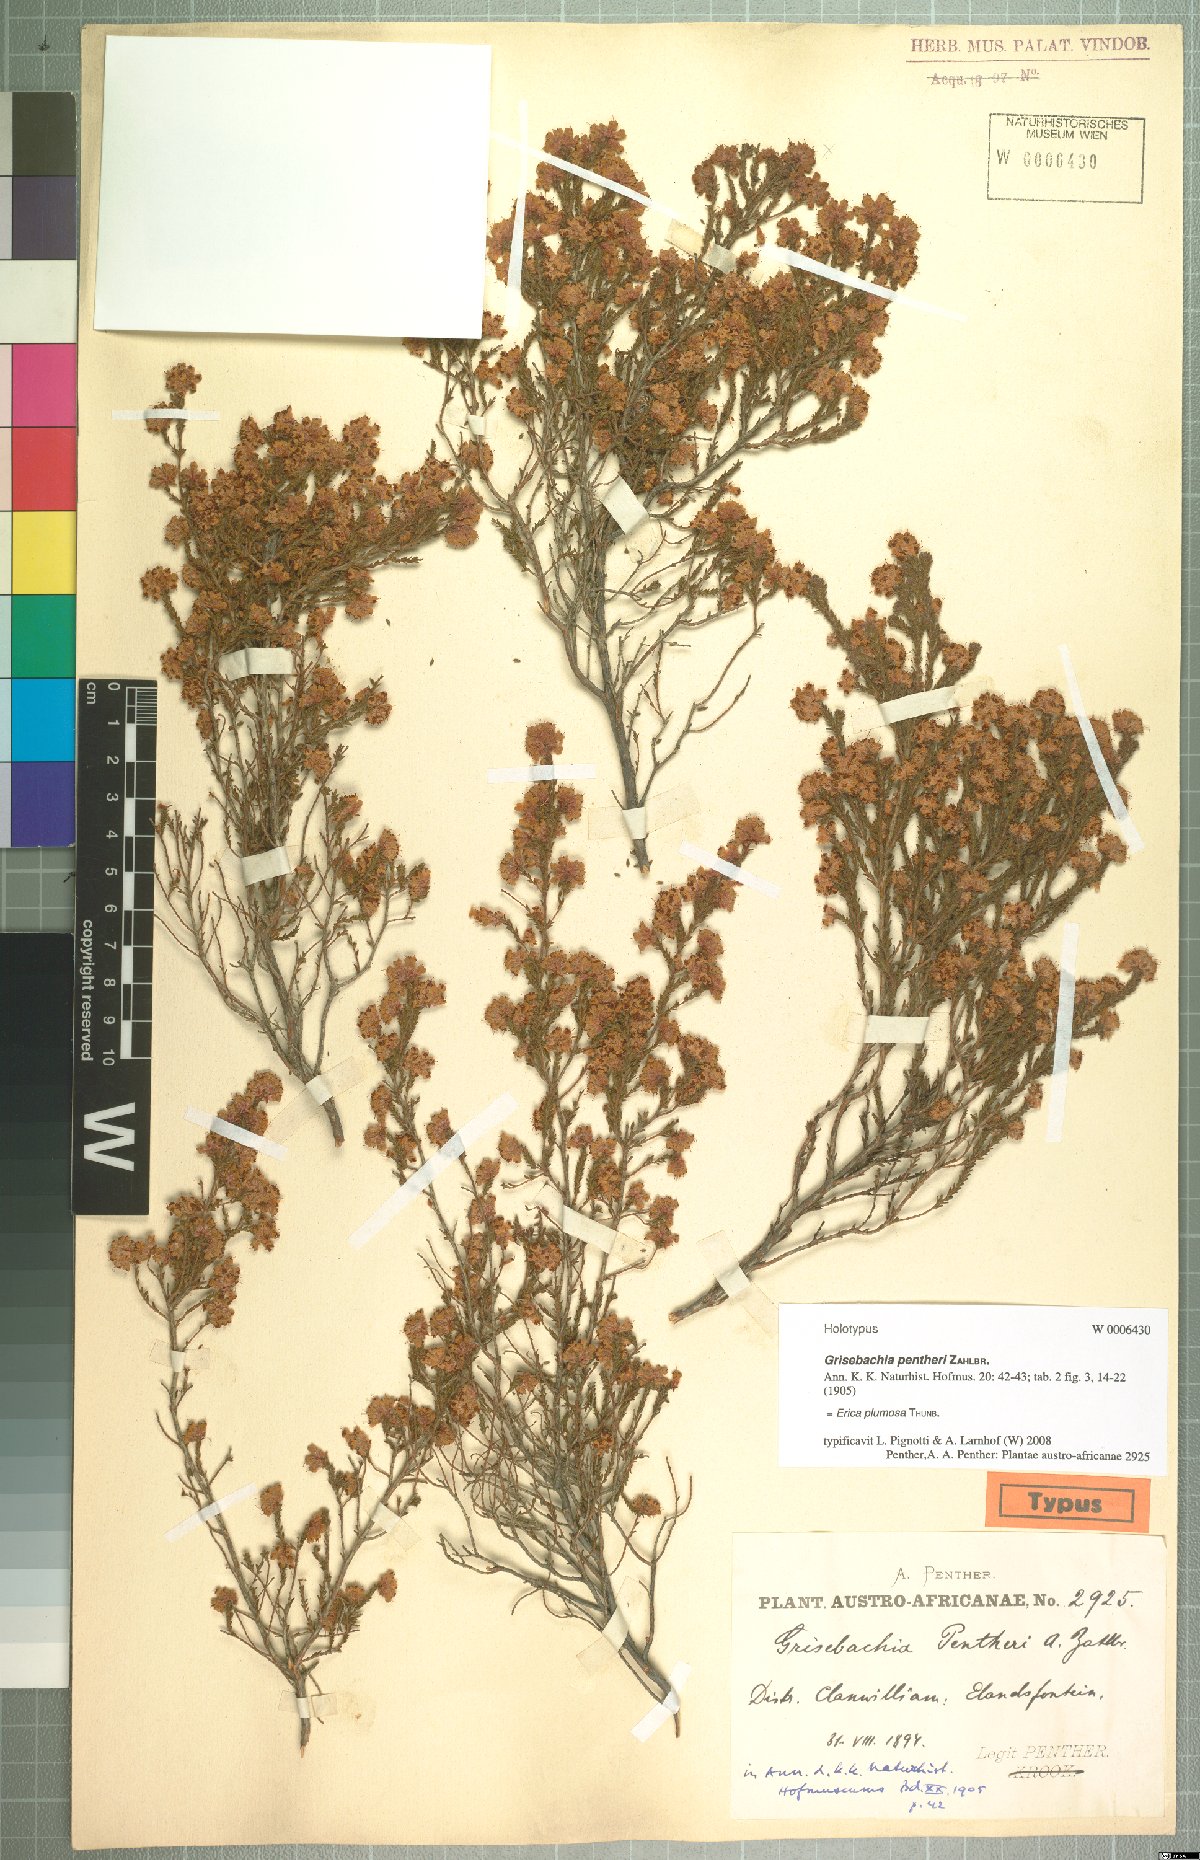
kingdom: Plantae
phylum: Tracheophyta
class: Magnoliopsida
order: Ericales
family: Ericaceae
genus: Erica
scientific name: Erica plumosa
